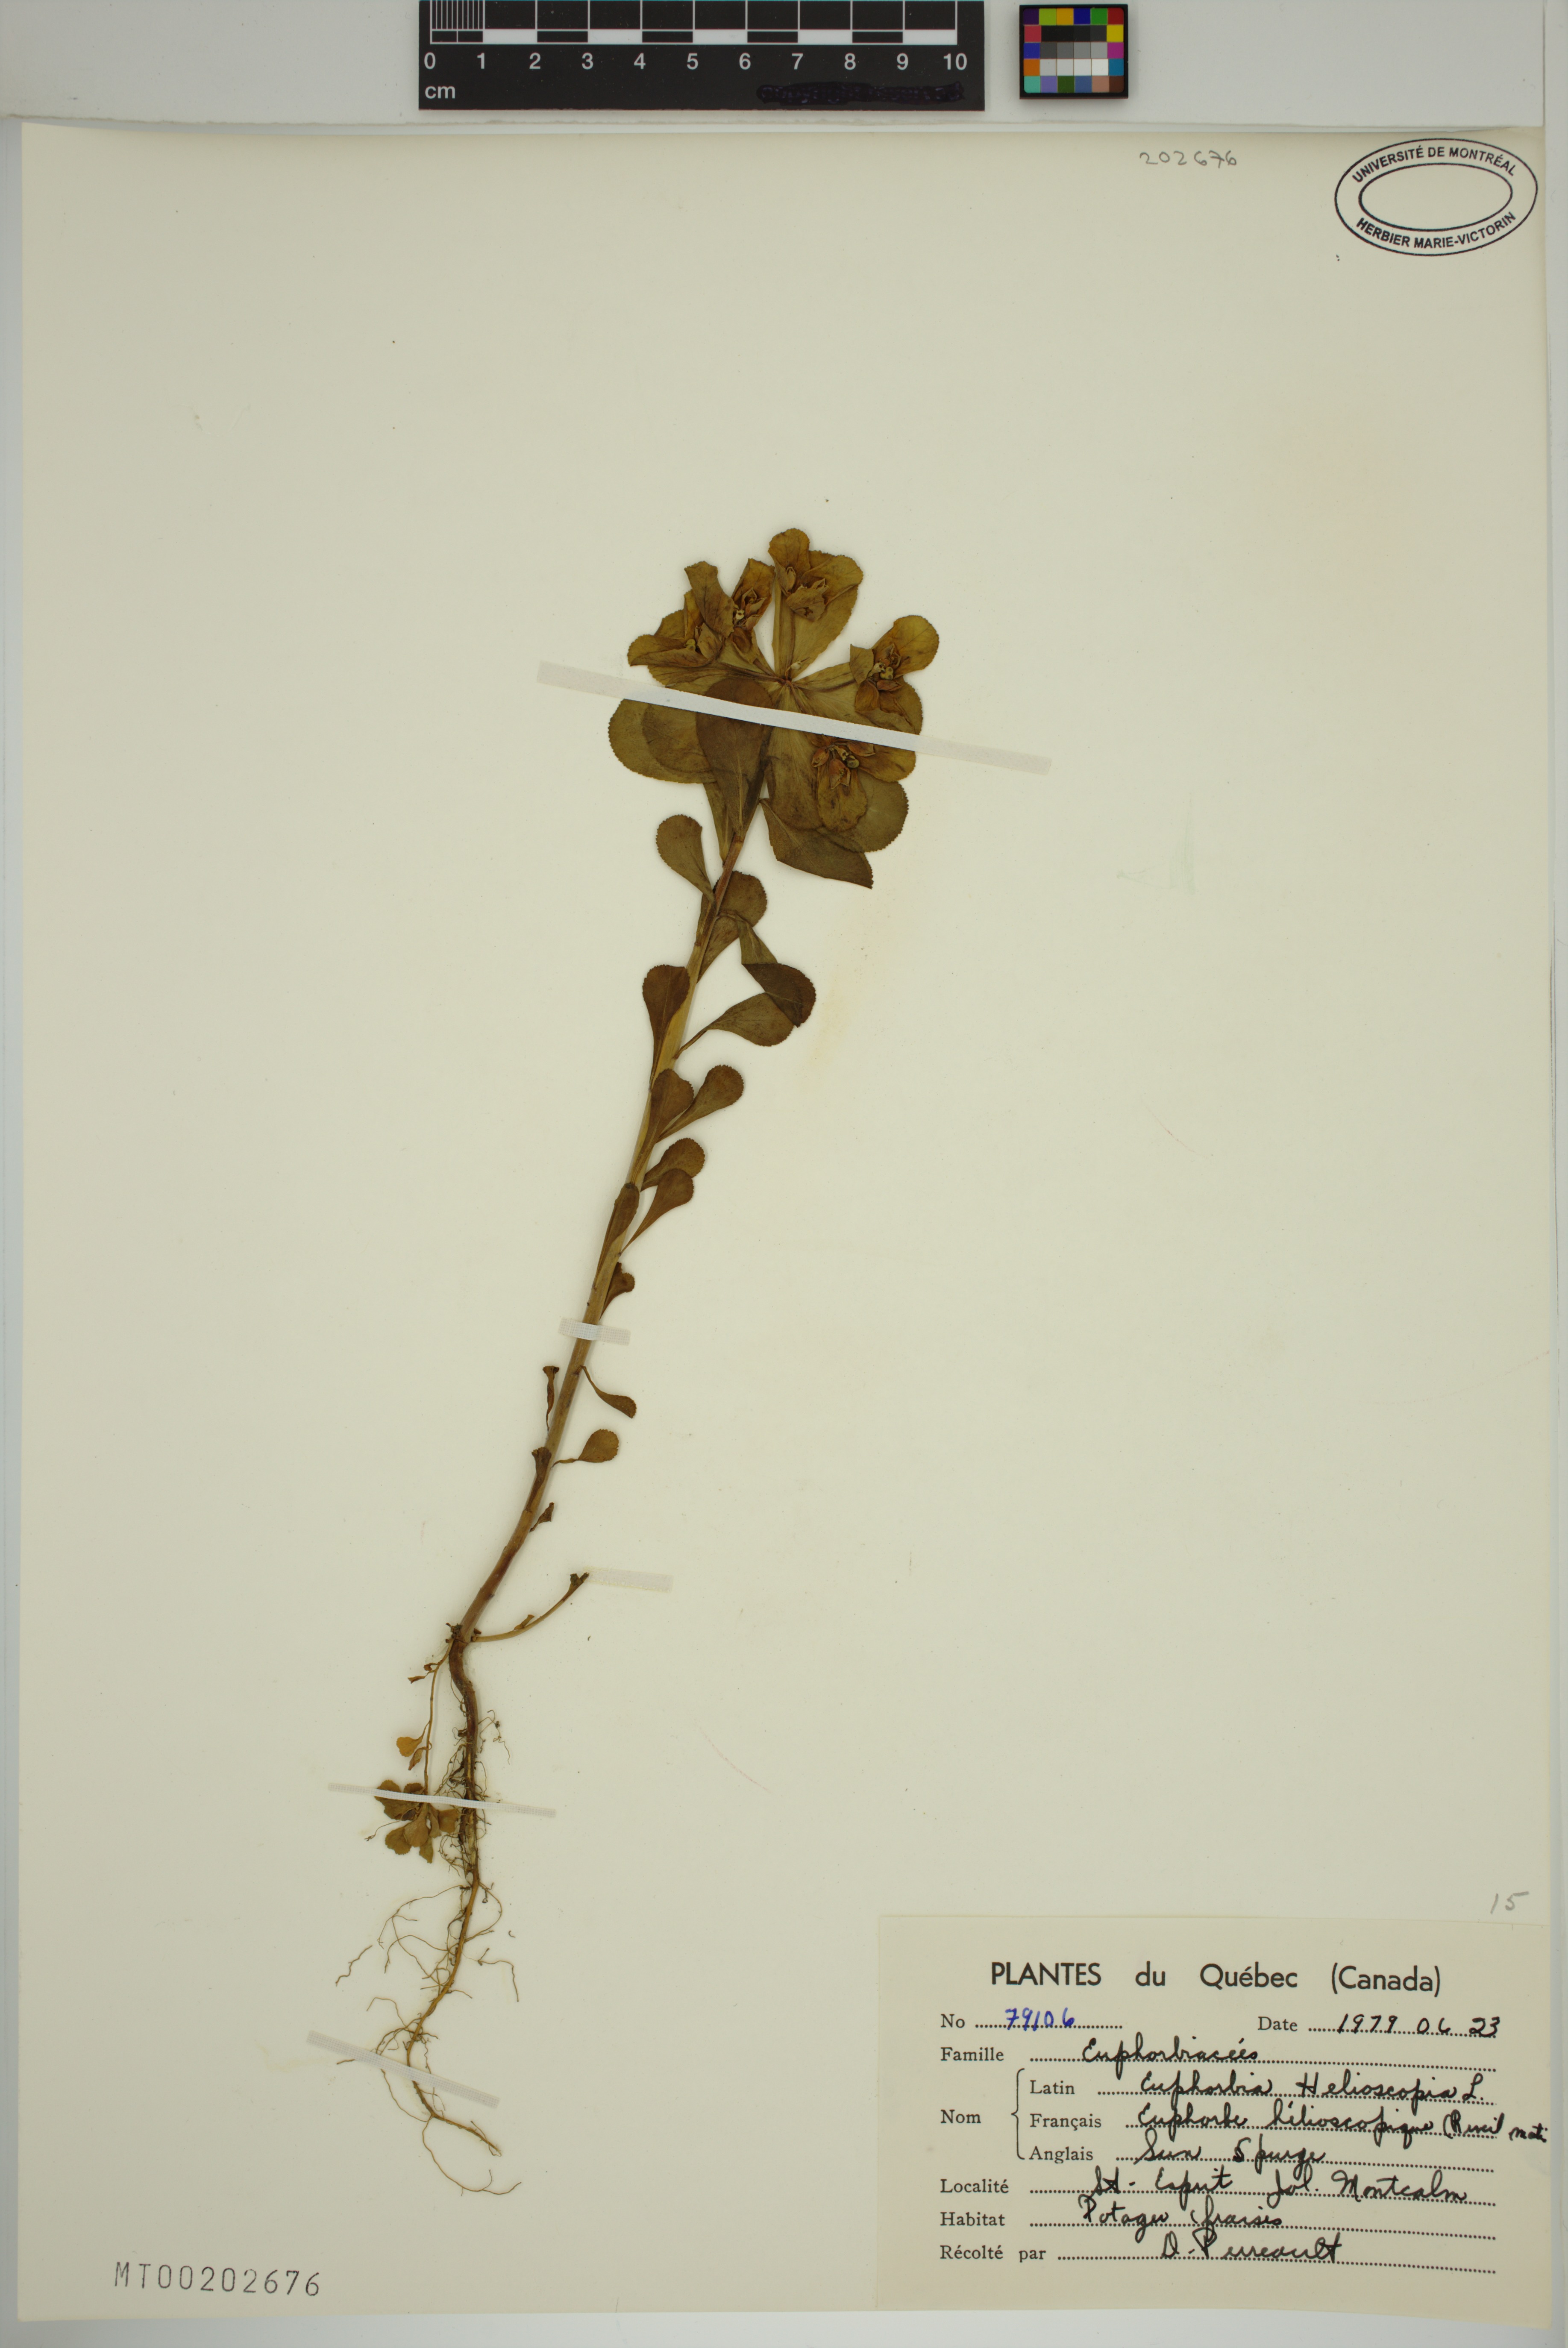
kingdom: Plantae
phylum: Tracheophyta
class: Magnoliopsida
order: Malpighiales
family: Euphorbiaceae
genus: Euphorbia
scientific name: Euphorbia helioscopia
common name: Sun spurge
